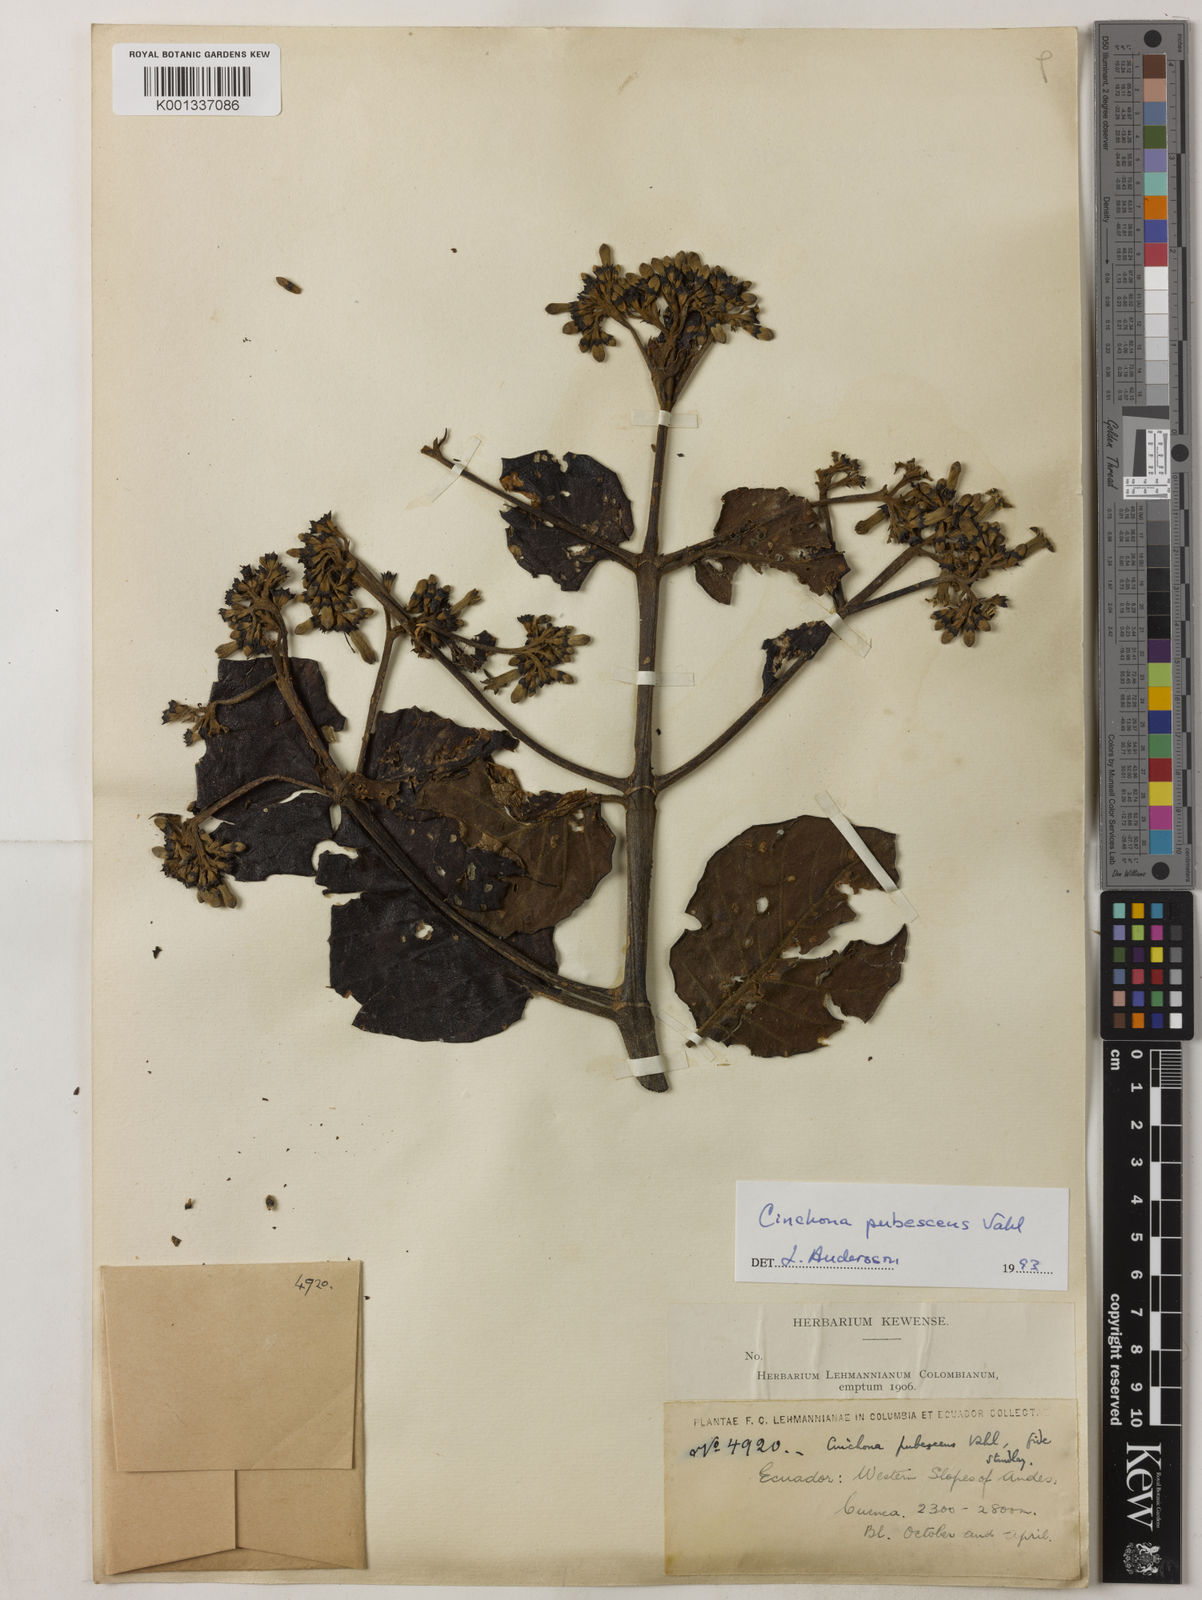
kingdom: Plantae
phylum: Tracheophyta
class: Magnoliopsida
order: Gentianales
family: Rubiaceae
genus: Cinchona
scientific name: Cinchona pubescens
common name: Quinine
